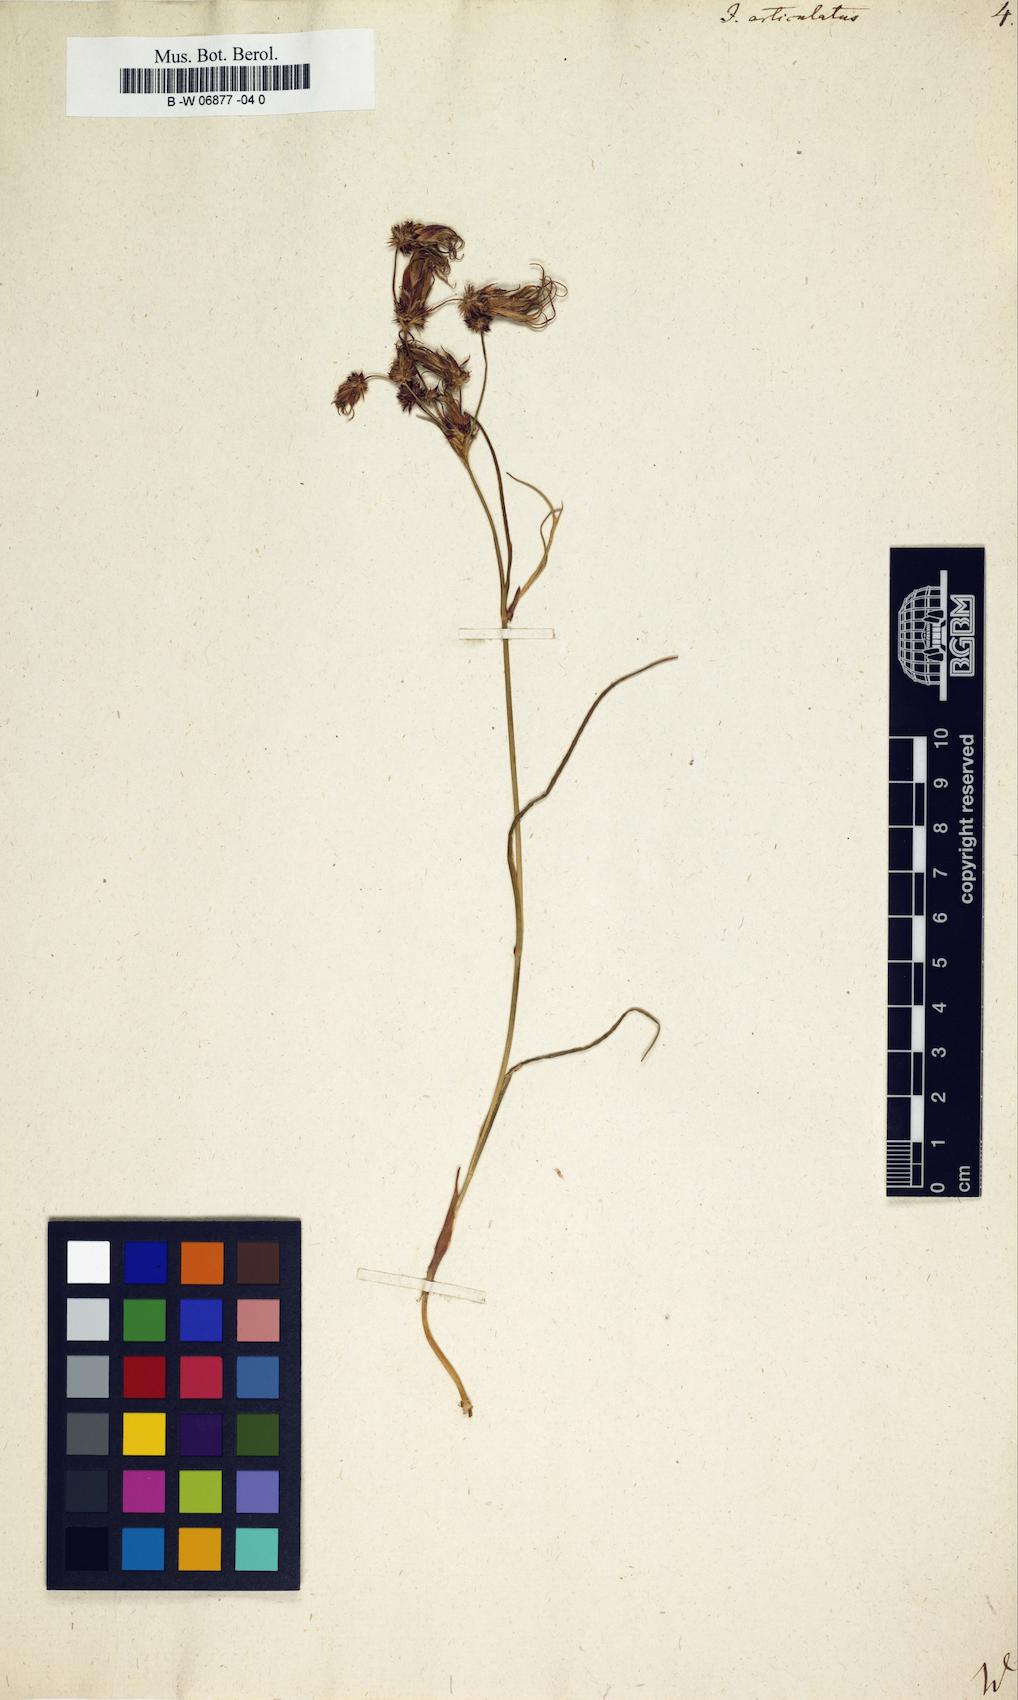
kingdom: Plantae
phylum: Tracheophyta
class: Liliopsida
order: Poales
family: Juncaceae
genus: Juncus
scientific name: Juncus articulatus
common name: Jointed rush
